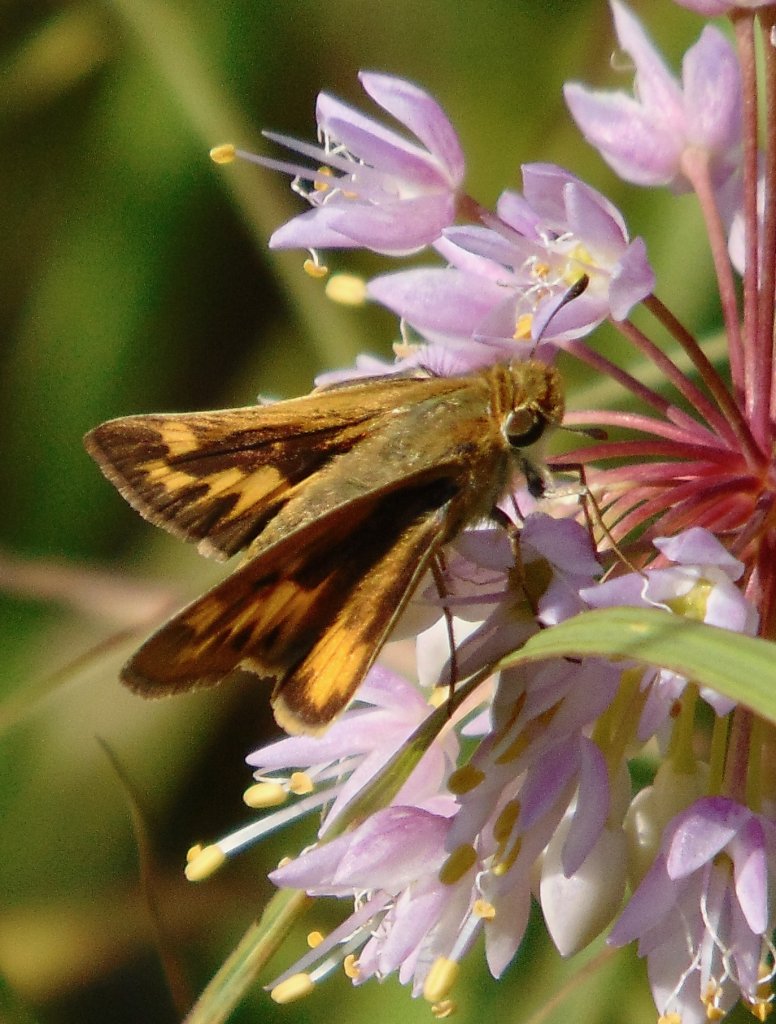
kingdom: Animalia
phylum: Arthropoda
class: Insecta
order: Lepidoptera
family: Hesperiidae
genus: Hylephila
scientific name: Hylephila phyleus
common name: Fiery Skipper
